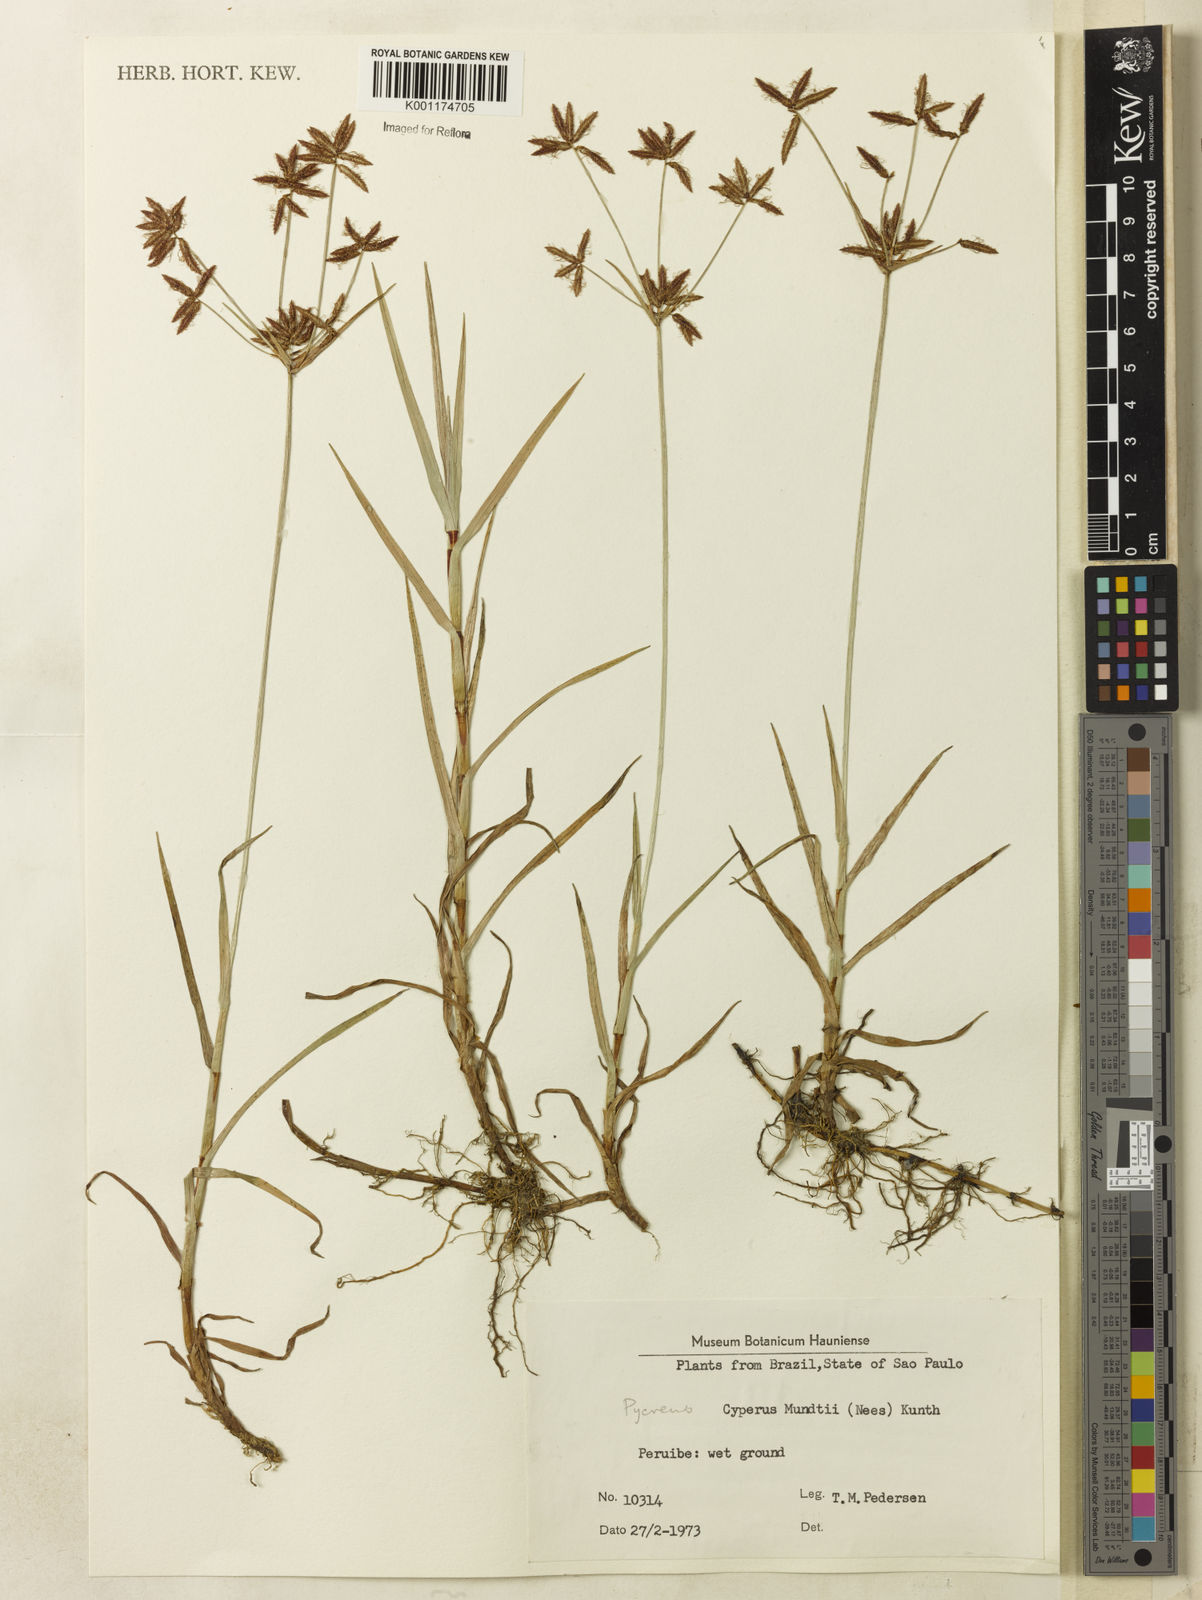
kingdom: Plantae
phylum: Tracheophyta
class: Liliopsida
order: Poales
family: Cyperaceae
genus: Cyperus
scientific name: Cyperus mundii
